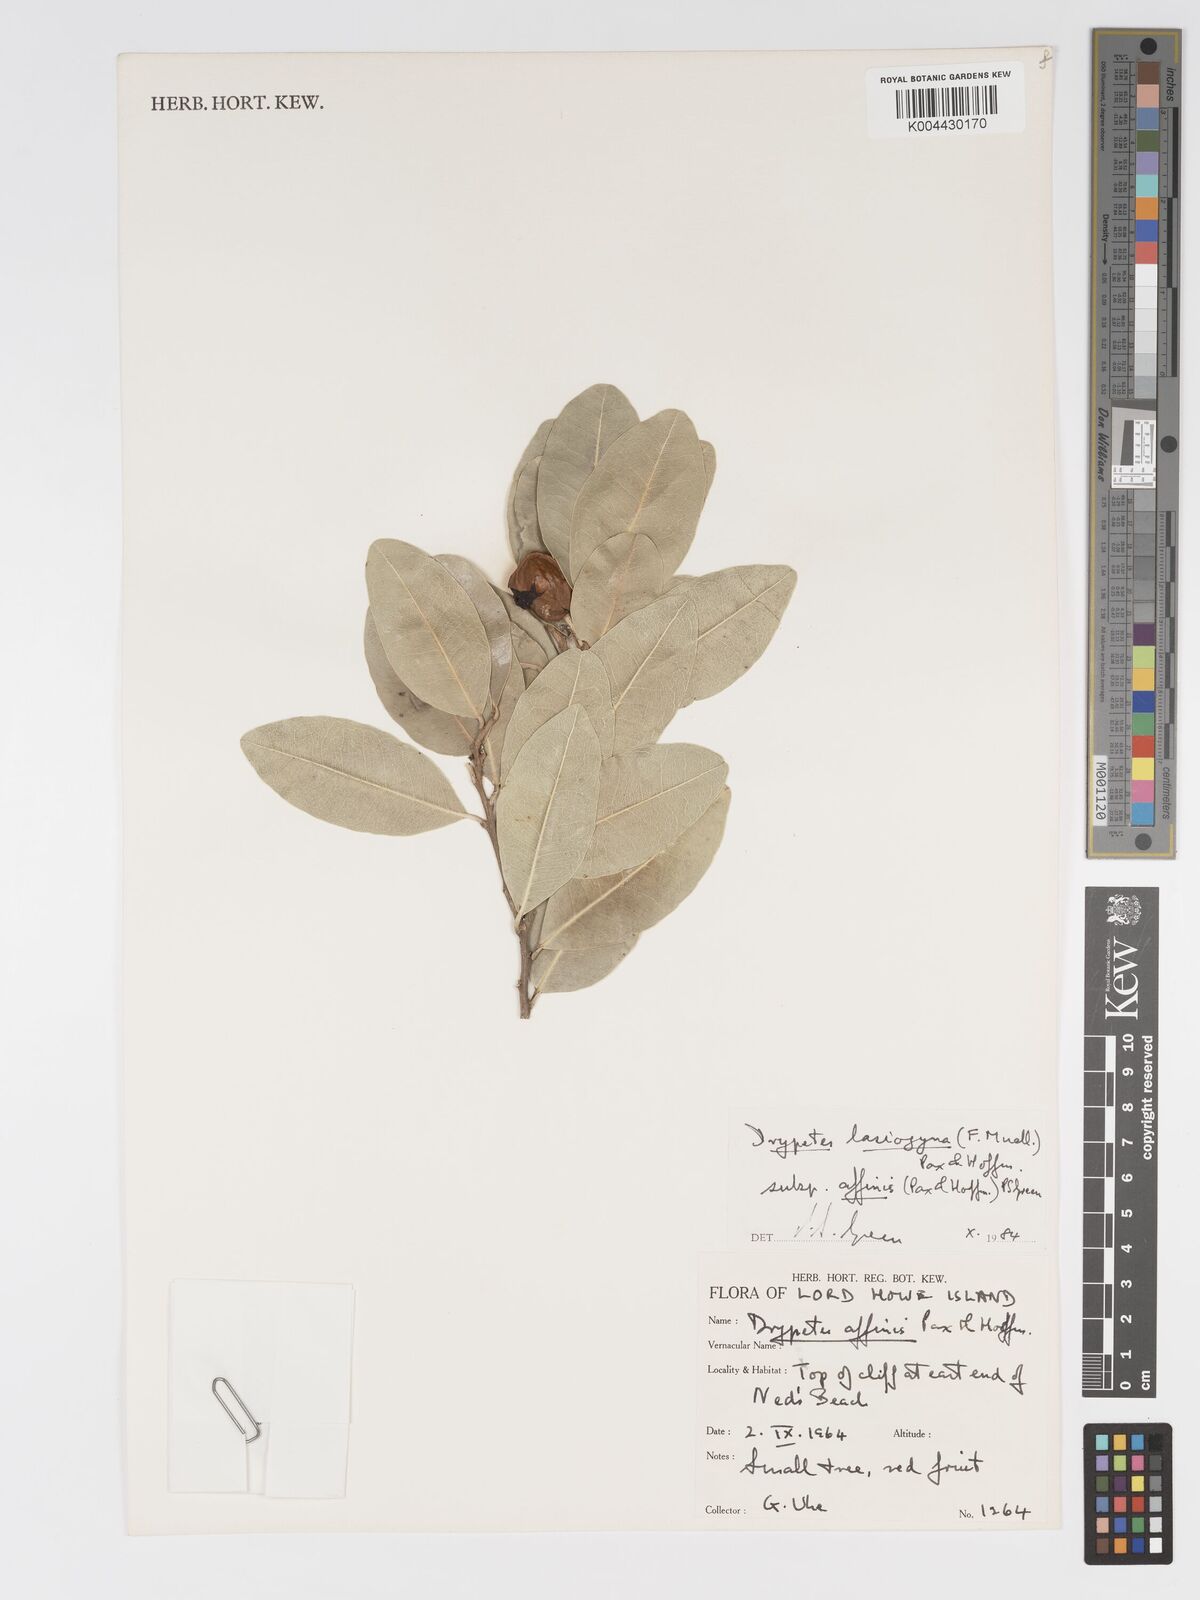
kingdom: Plantae
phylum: Tracheophyta
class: Magnoliopsida
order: Malpighiales
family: Putranjivaceae
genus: Drypetes
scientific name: Drypetes deplanchei
